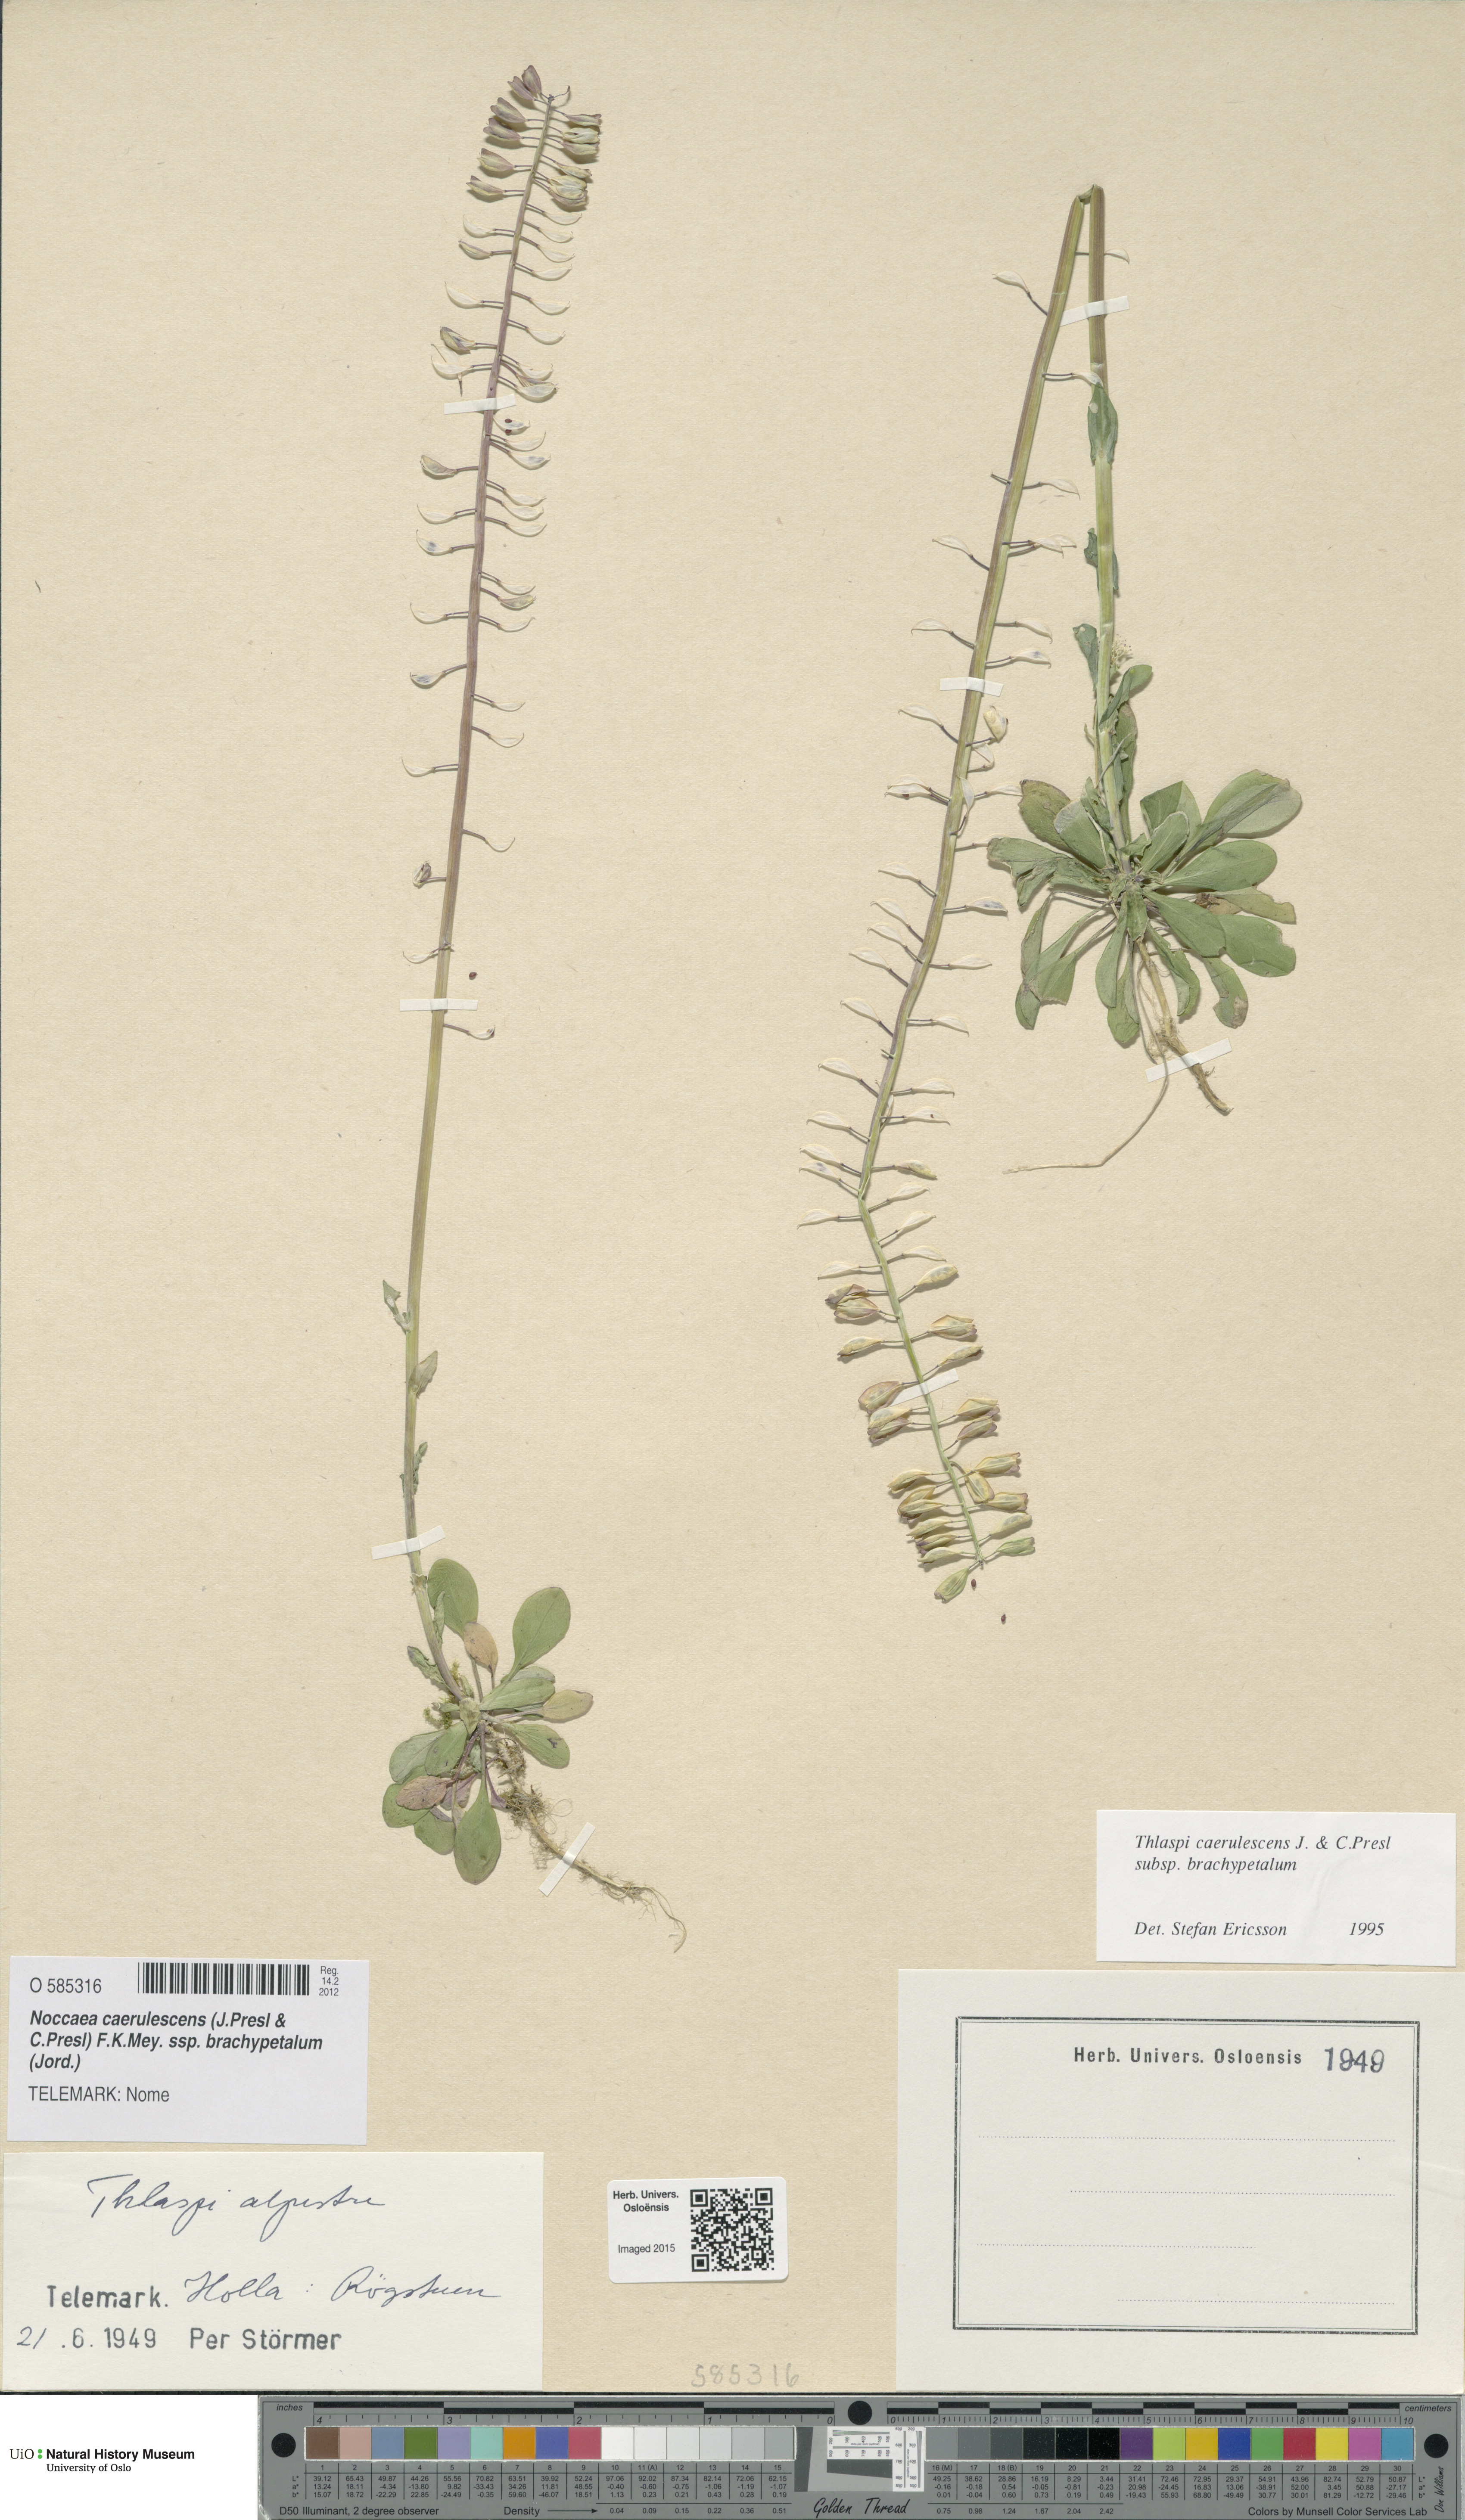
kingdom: Plantae
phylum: Tracheophyta
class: Magnoliopsida
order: Brassicales
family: Brassicaceae
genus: Noccaea
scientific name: Noccaea brachypetala
